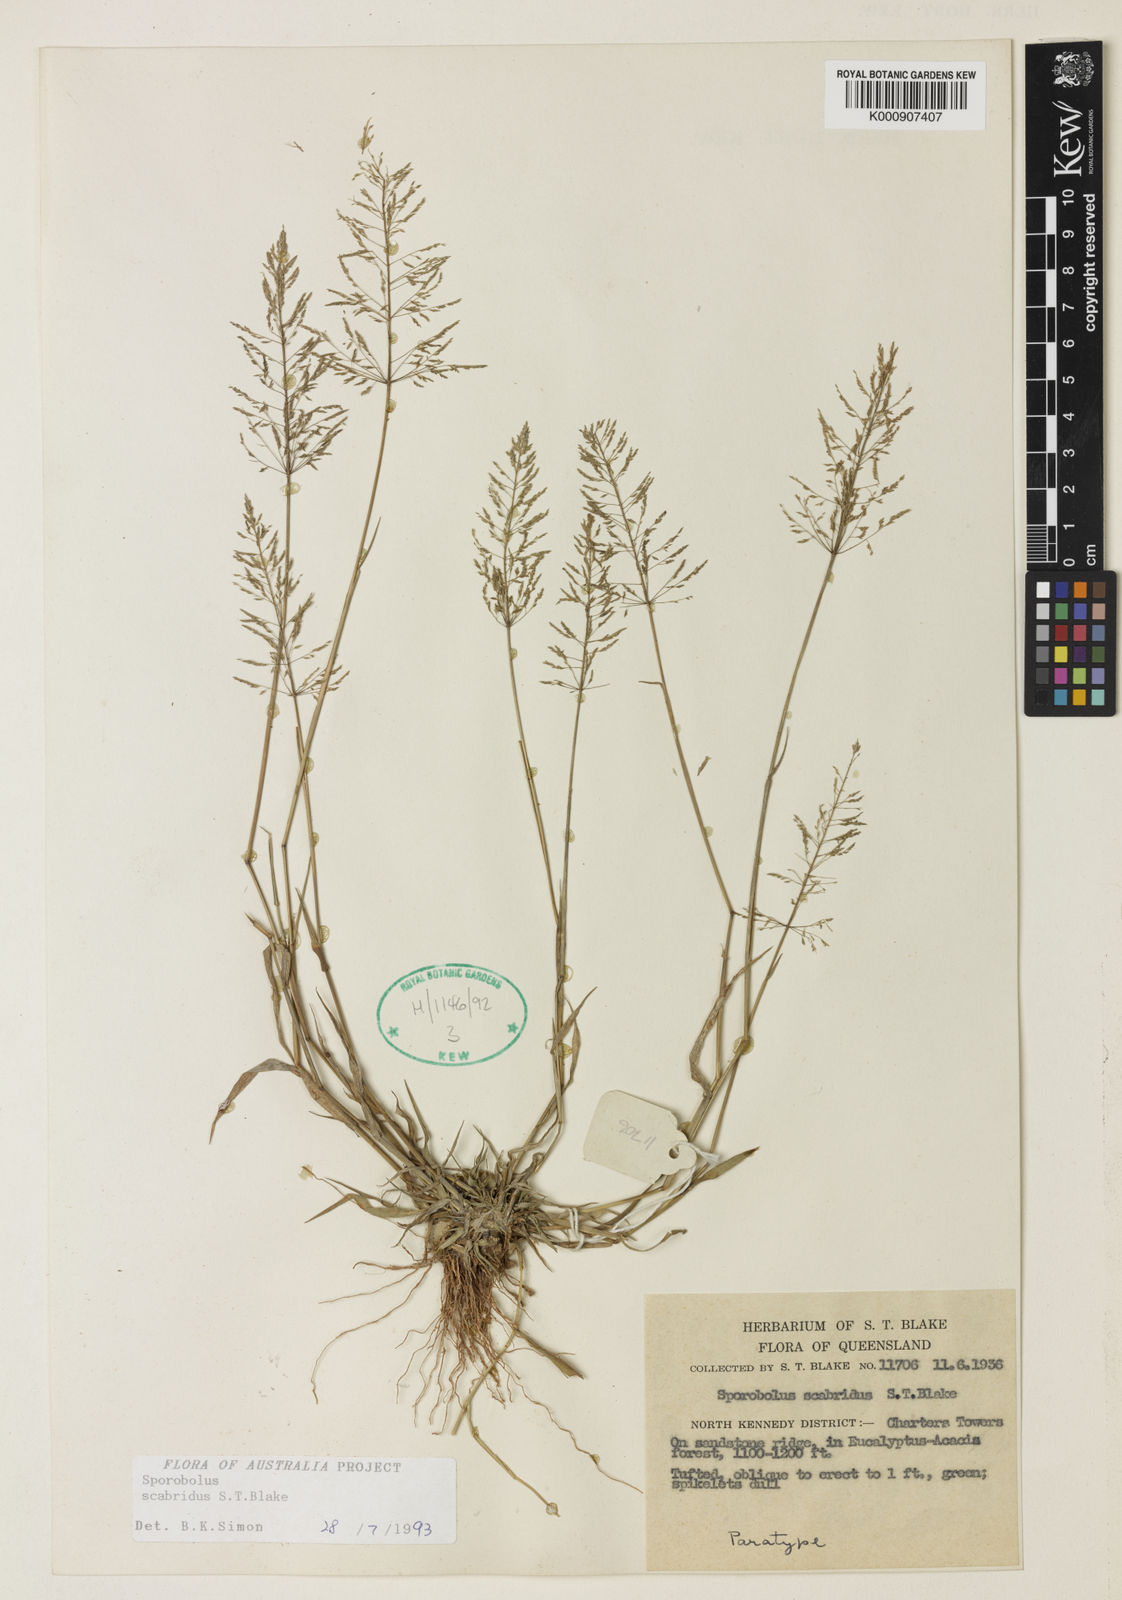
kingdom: Plantae
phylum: Tracheophyta
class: Liliopsida
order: Poales
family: Poaceae
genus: Sporobolus
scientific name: Sporobolus scabridus
